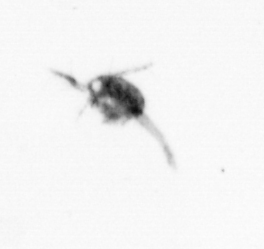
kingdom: Animalia
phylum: Arthropoda
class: Copepoda
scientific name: Copepoda
